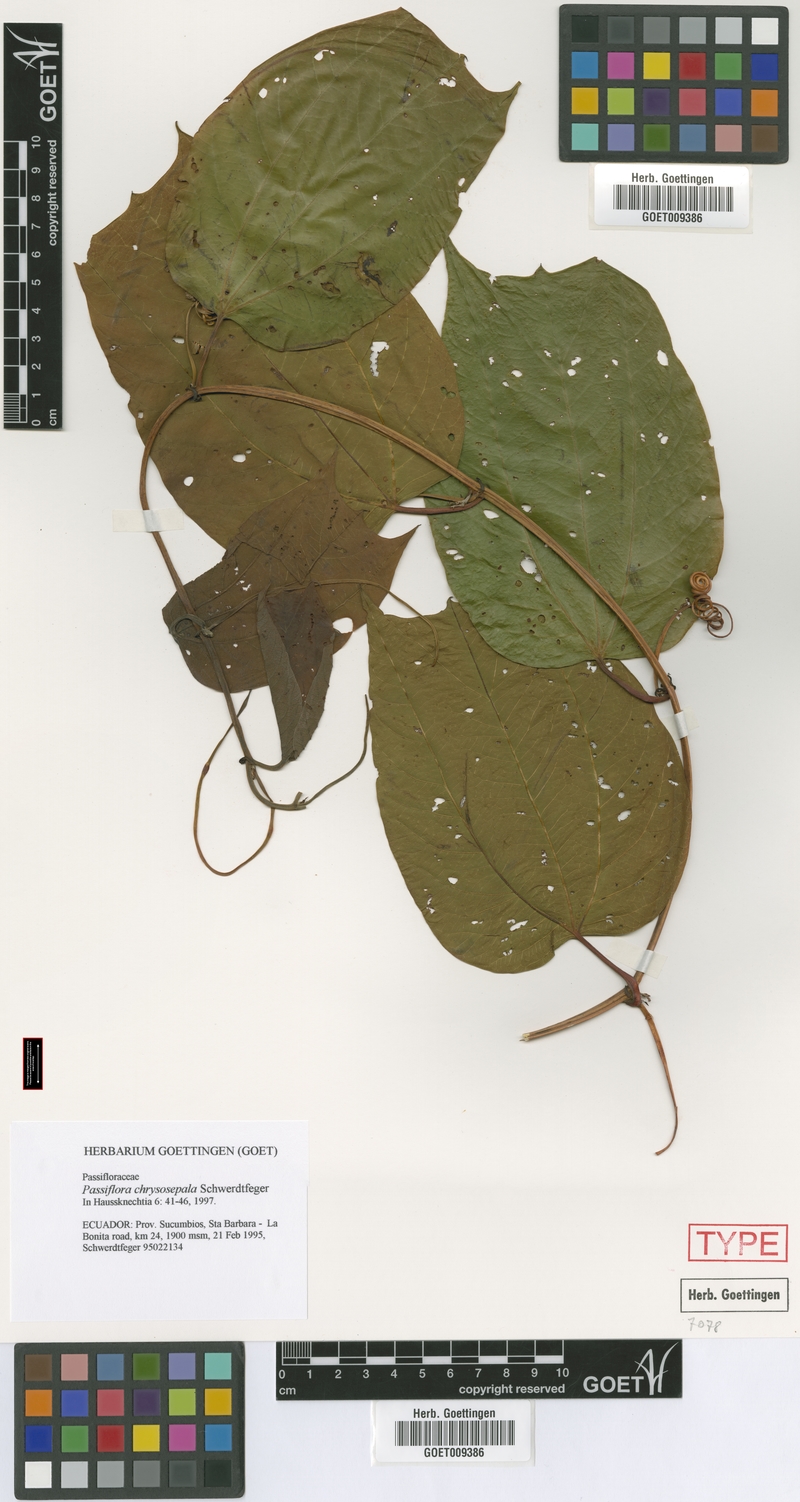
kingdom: Plantae
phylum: Tracheophyta
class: Magnoliopsida
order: Malpighiales
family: Passifloraceae
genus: Passiflora
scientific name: Passiflora chrysosepala
